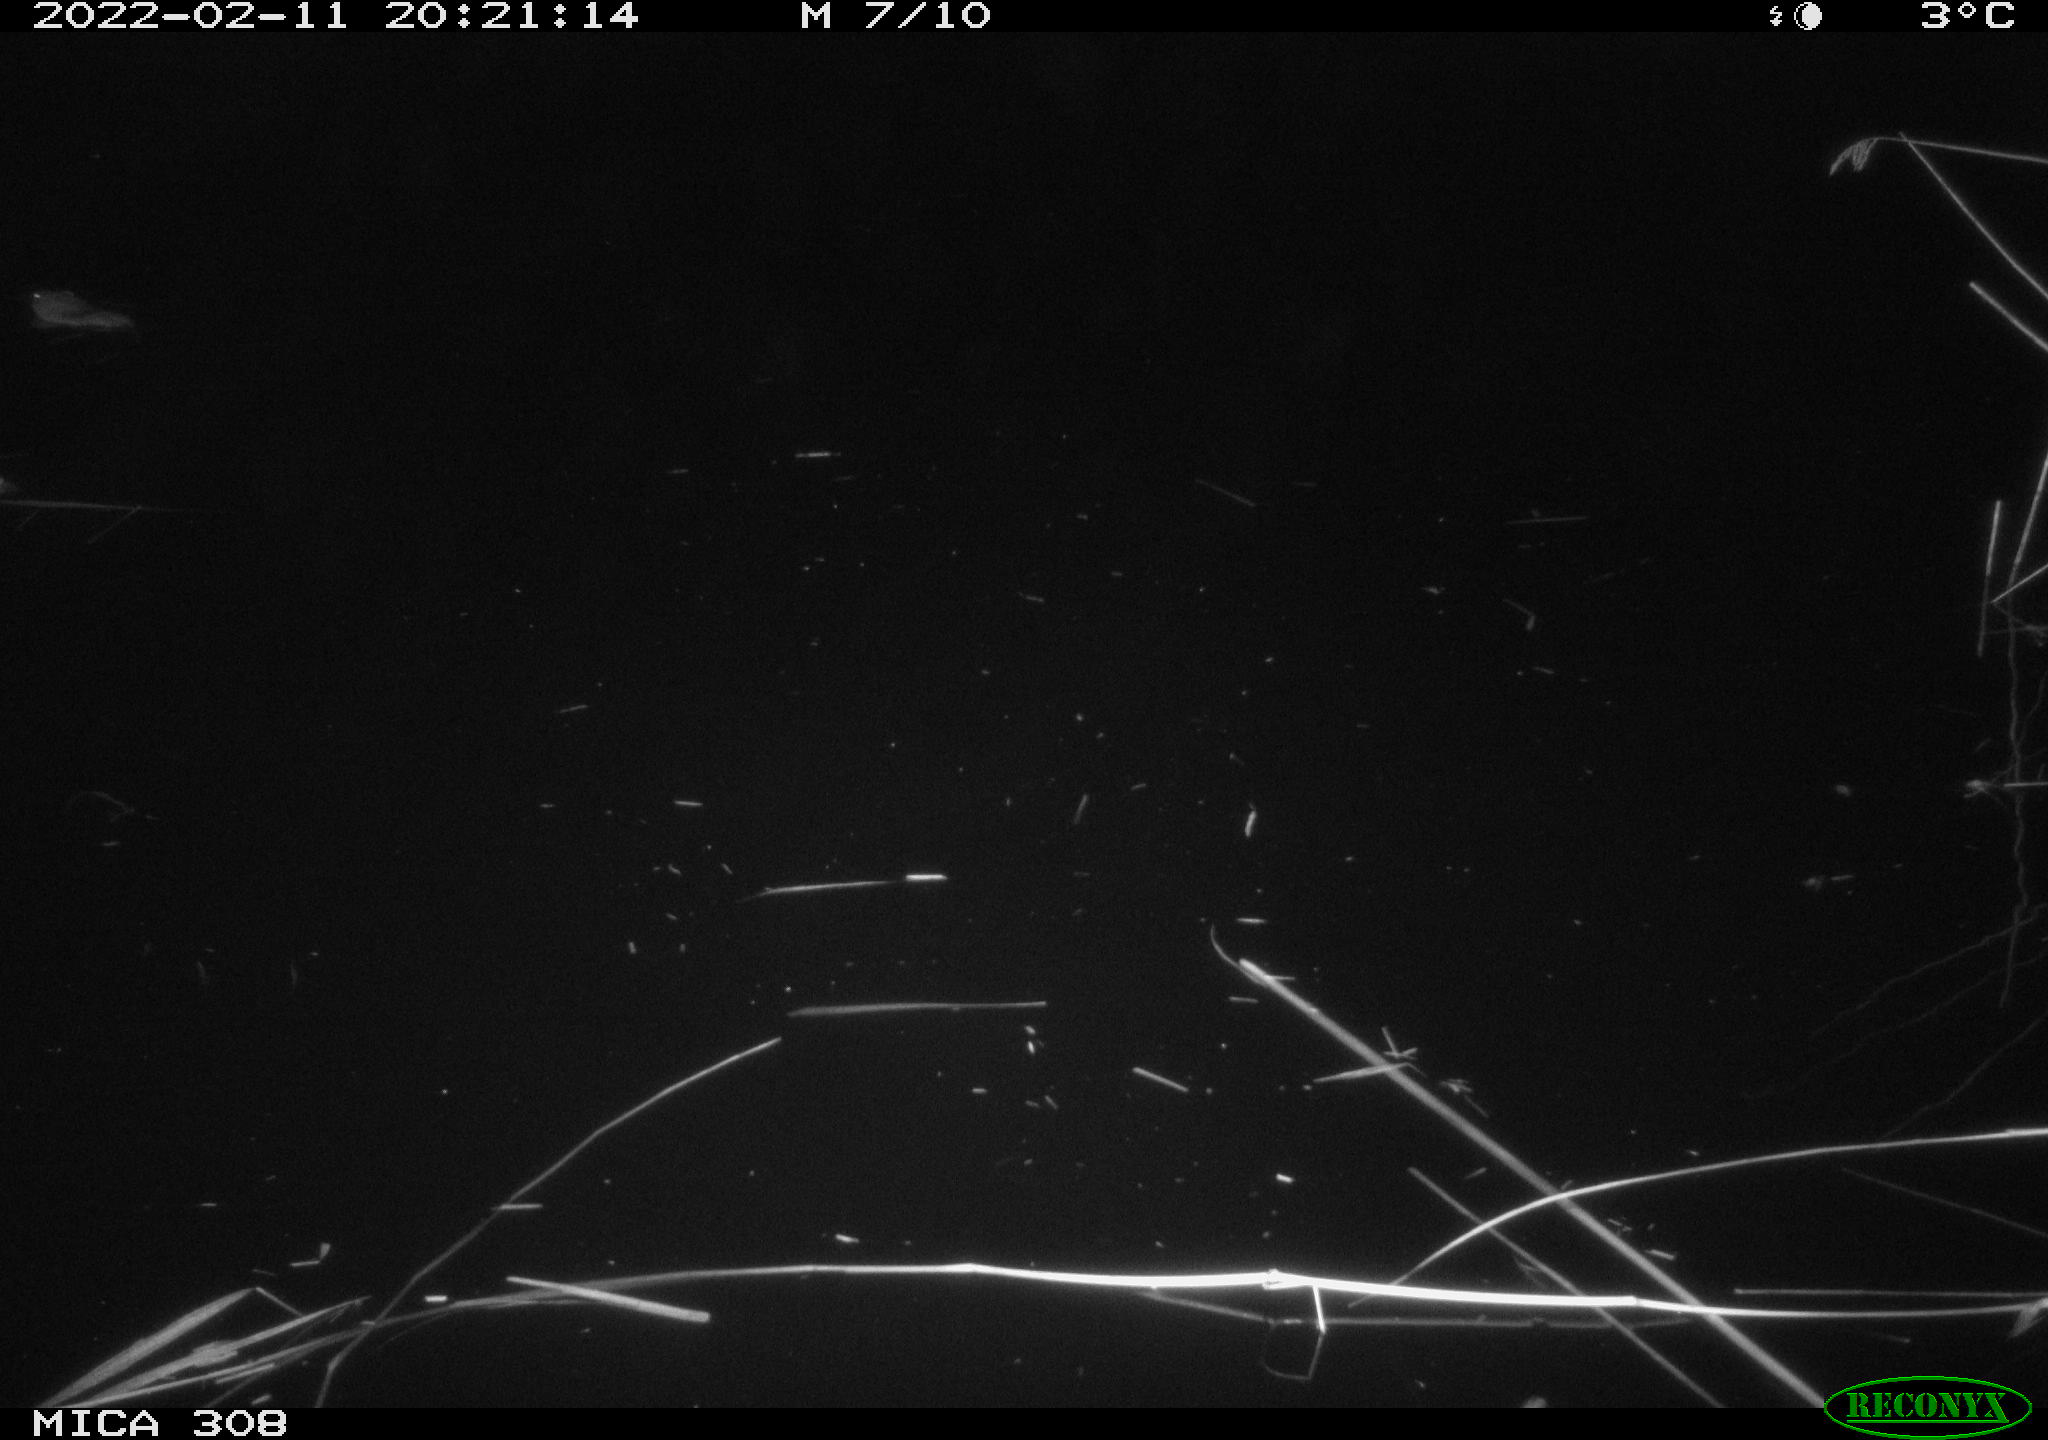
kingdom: Animalia
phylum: Chordata
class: Mammalia
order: Rodentia
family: Cricetidae
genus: Ondatra
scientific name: Ondatra zibethicus
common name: Muskrat
